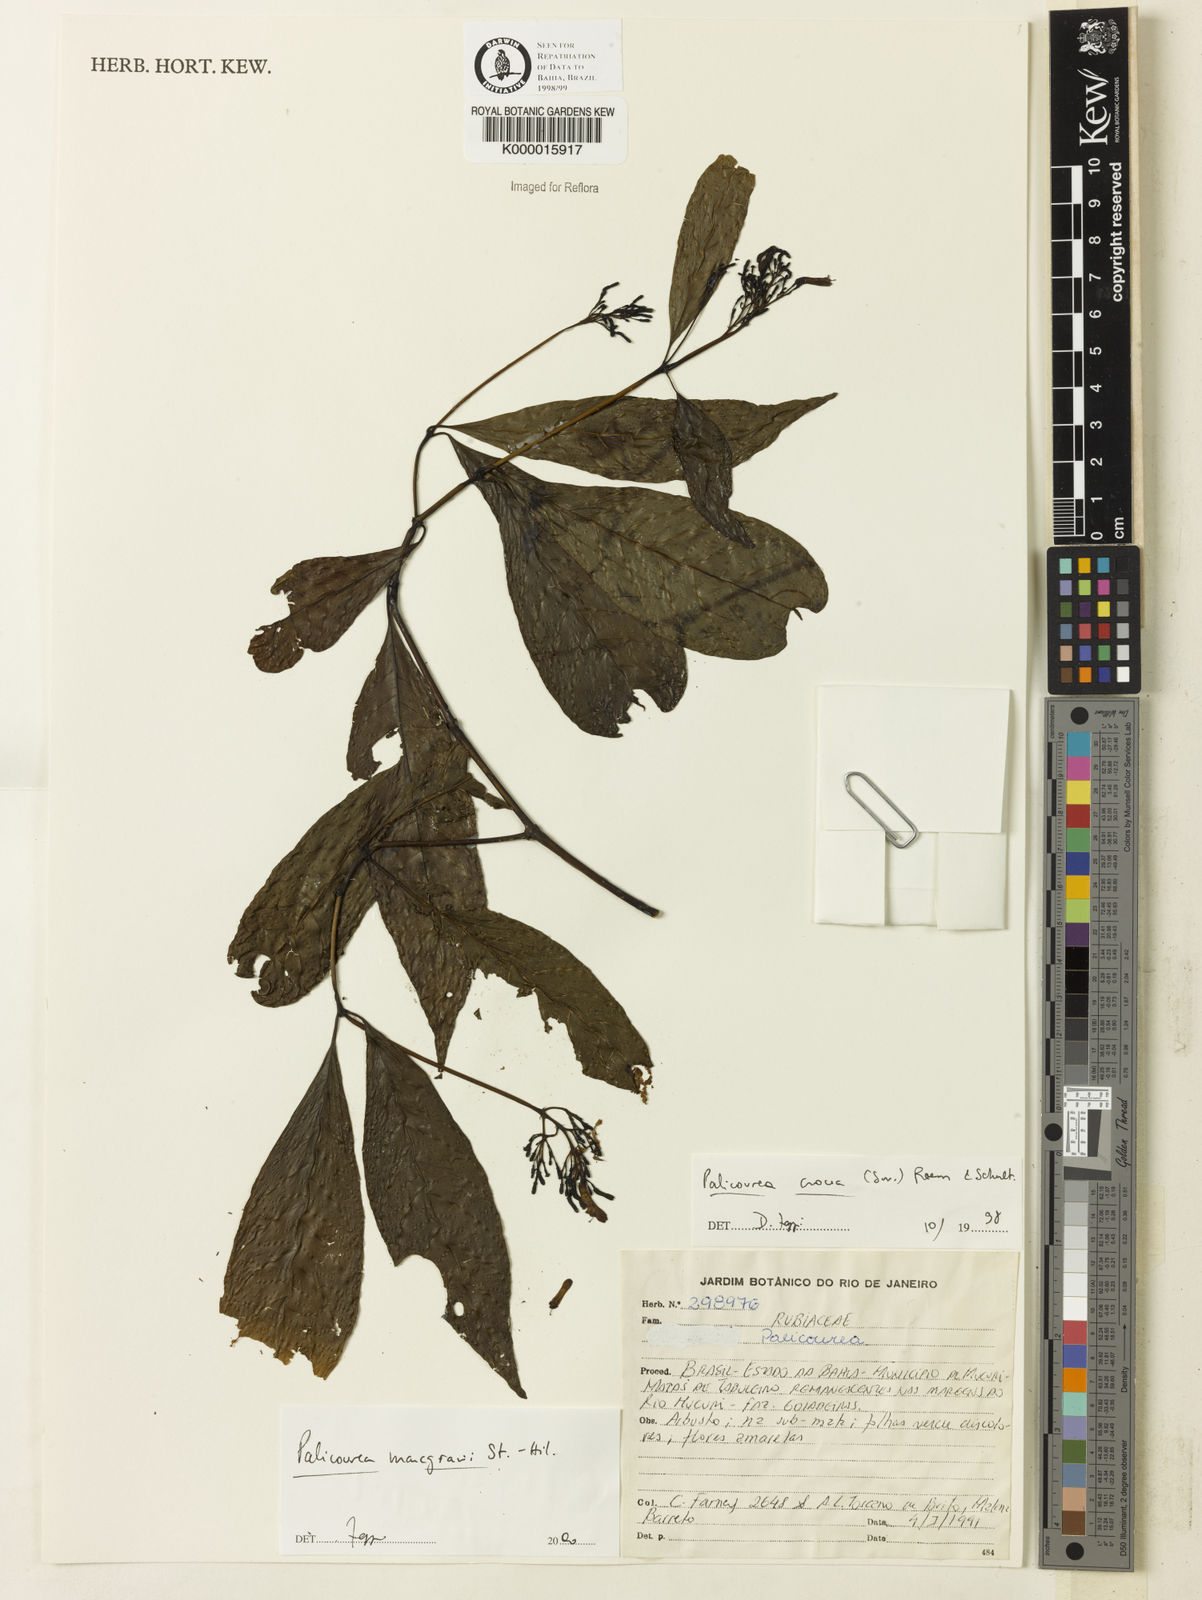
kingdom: Plantae
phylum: Tracheophyta
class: Magnoliopsida
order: Gentianales
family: Rubiaceae
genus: Palicourea
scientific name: Palicourea marcgravii
